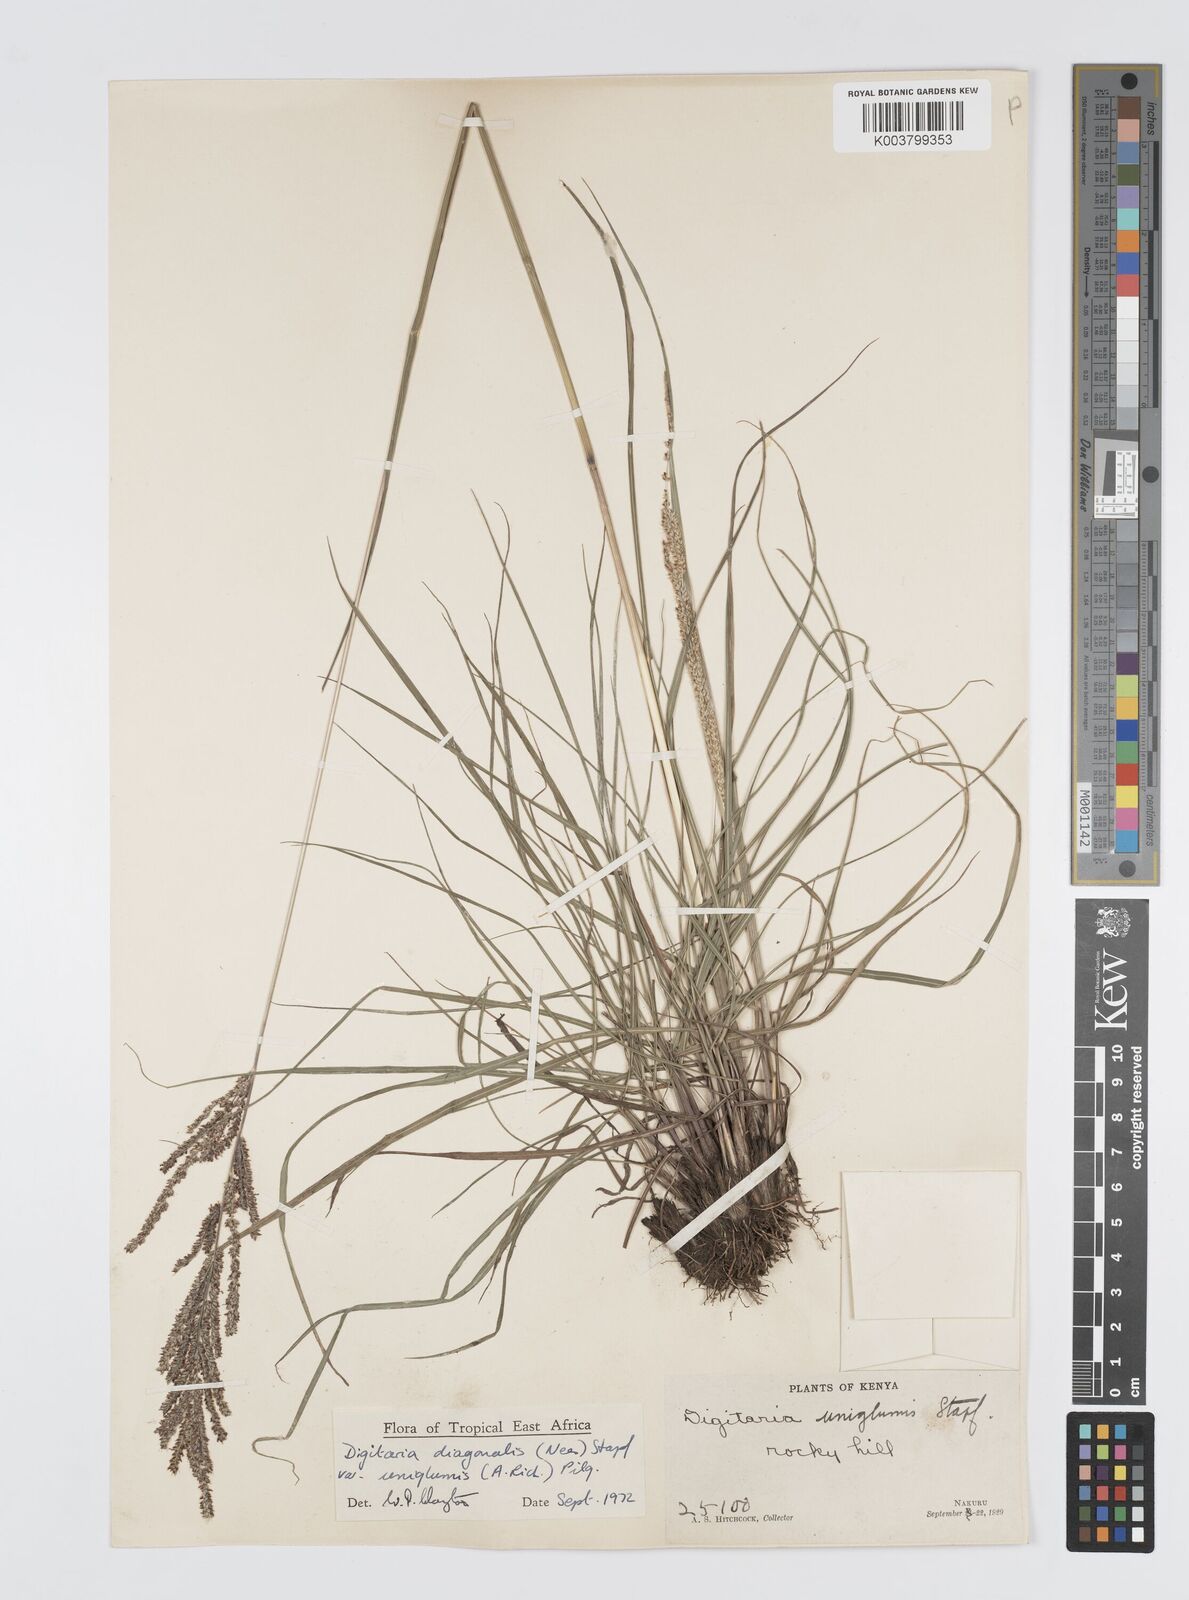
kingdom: Plantae
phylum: Tracheophyta
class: Liliopsida
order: Poales
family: Poaceae
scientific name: Poaceae
